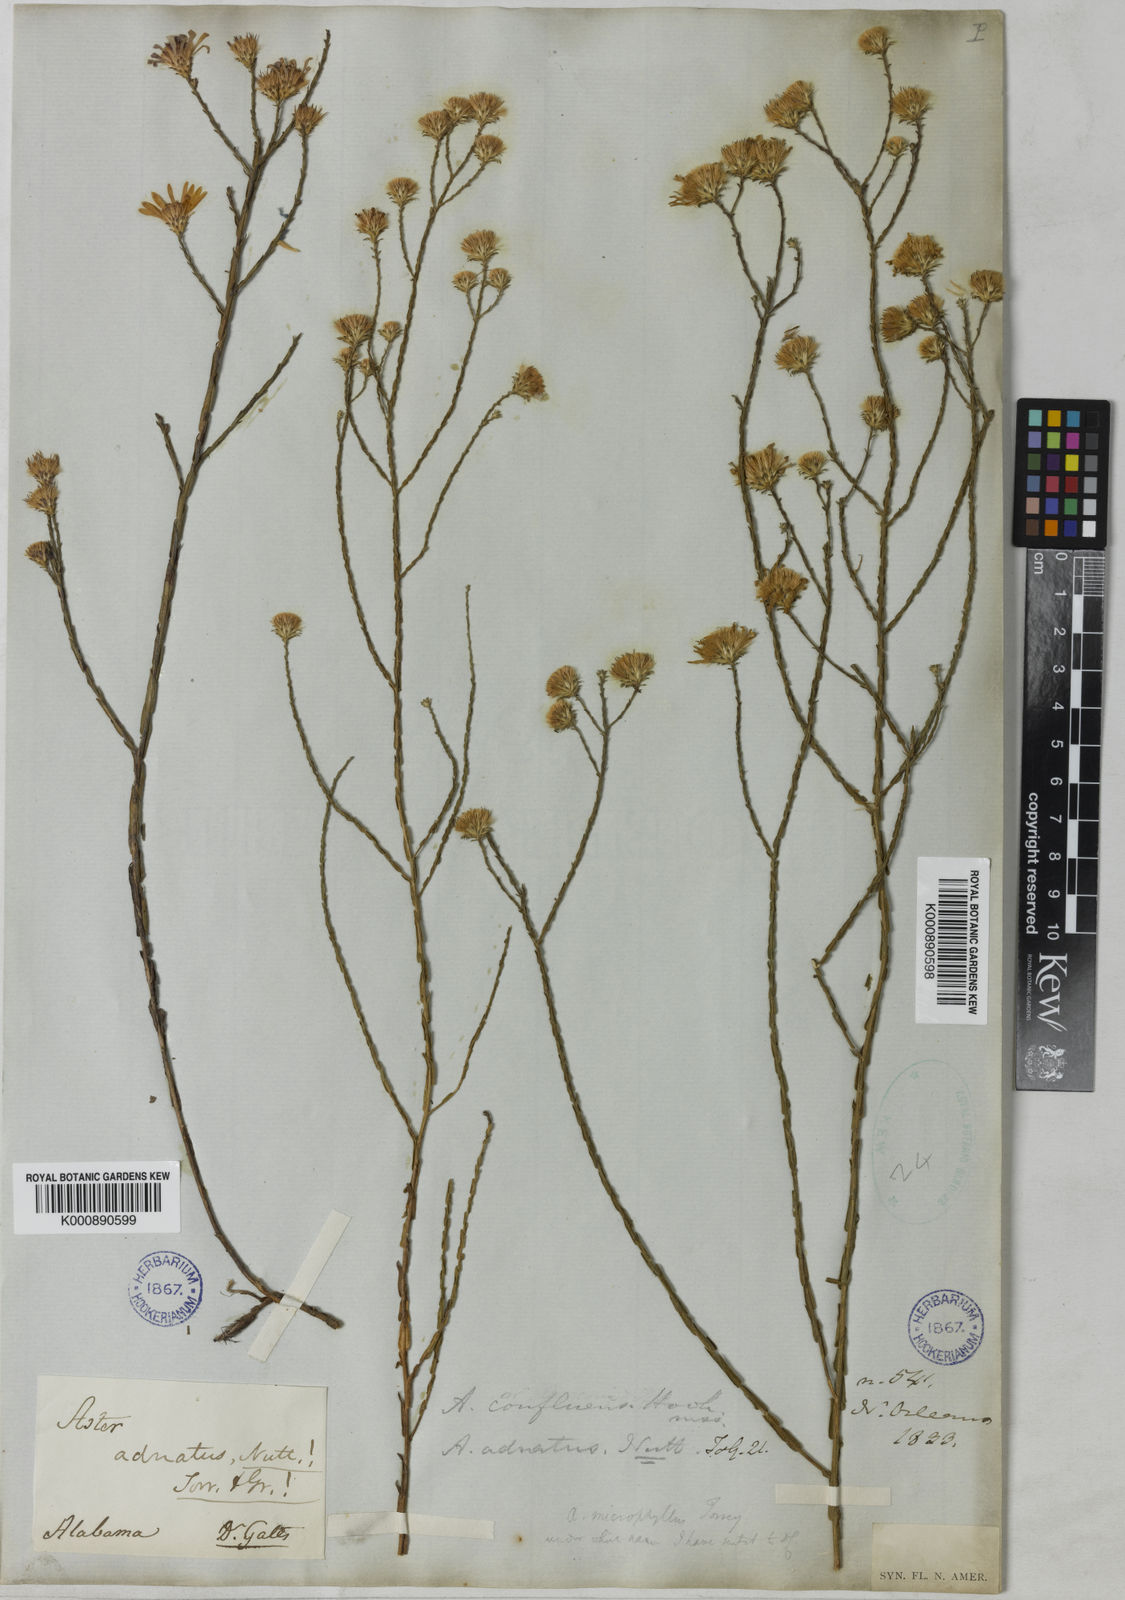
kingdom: Plantae
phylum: Tracheophyta
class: Magnoliopsida
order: Asterales
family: Asteraceae
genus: Symphyotrichum
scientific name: Symphyotrichum adnatum
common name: Scale-leaf aster
